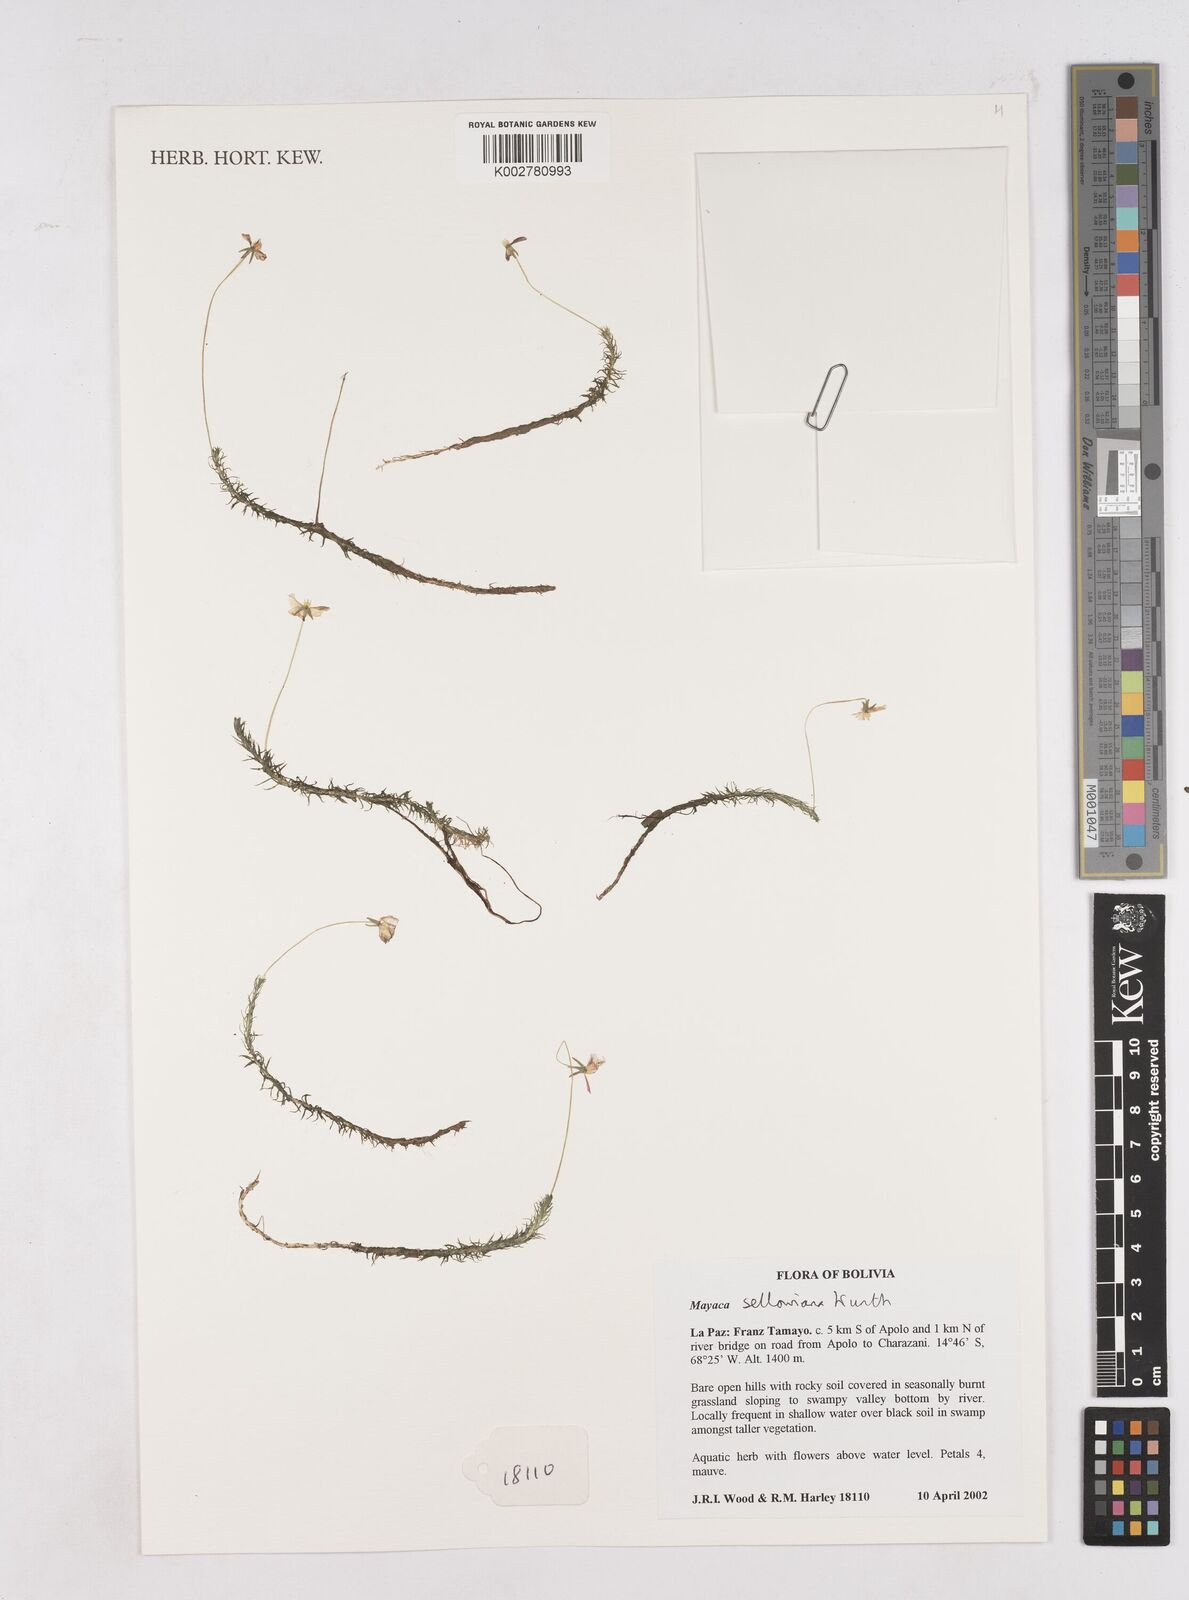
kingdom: Plantae
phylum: Tracheophyta
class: Liliopsida
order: Poales
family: Mayacaceae
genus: Mayaca
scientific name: Mayaca sellowiana
